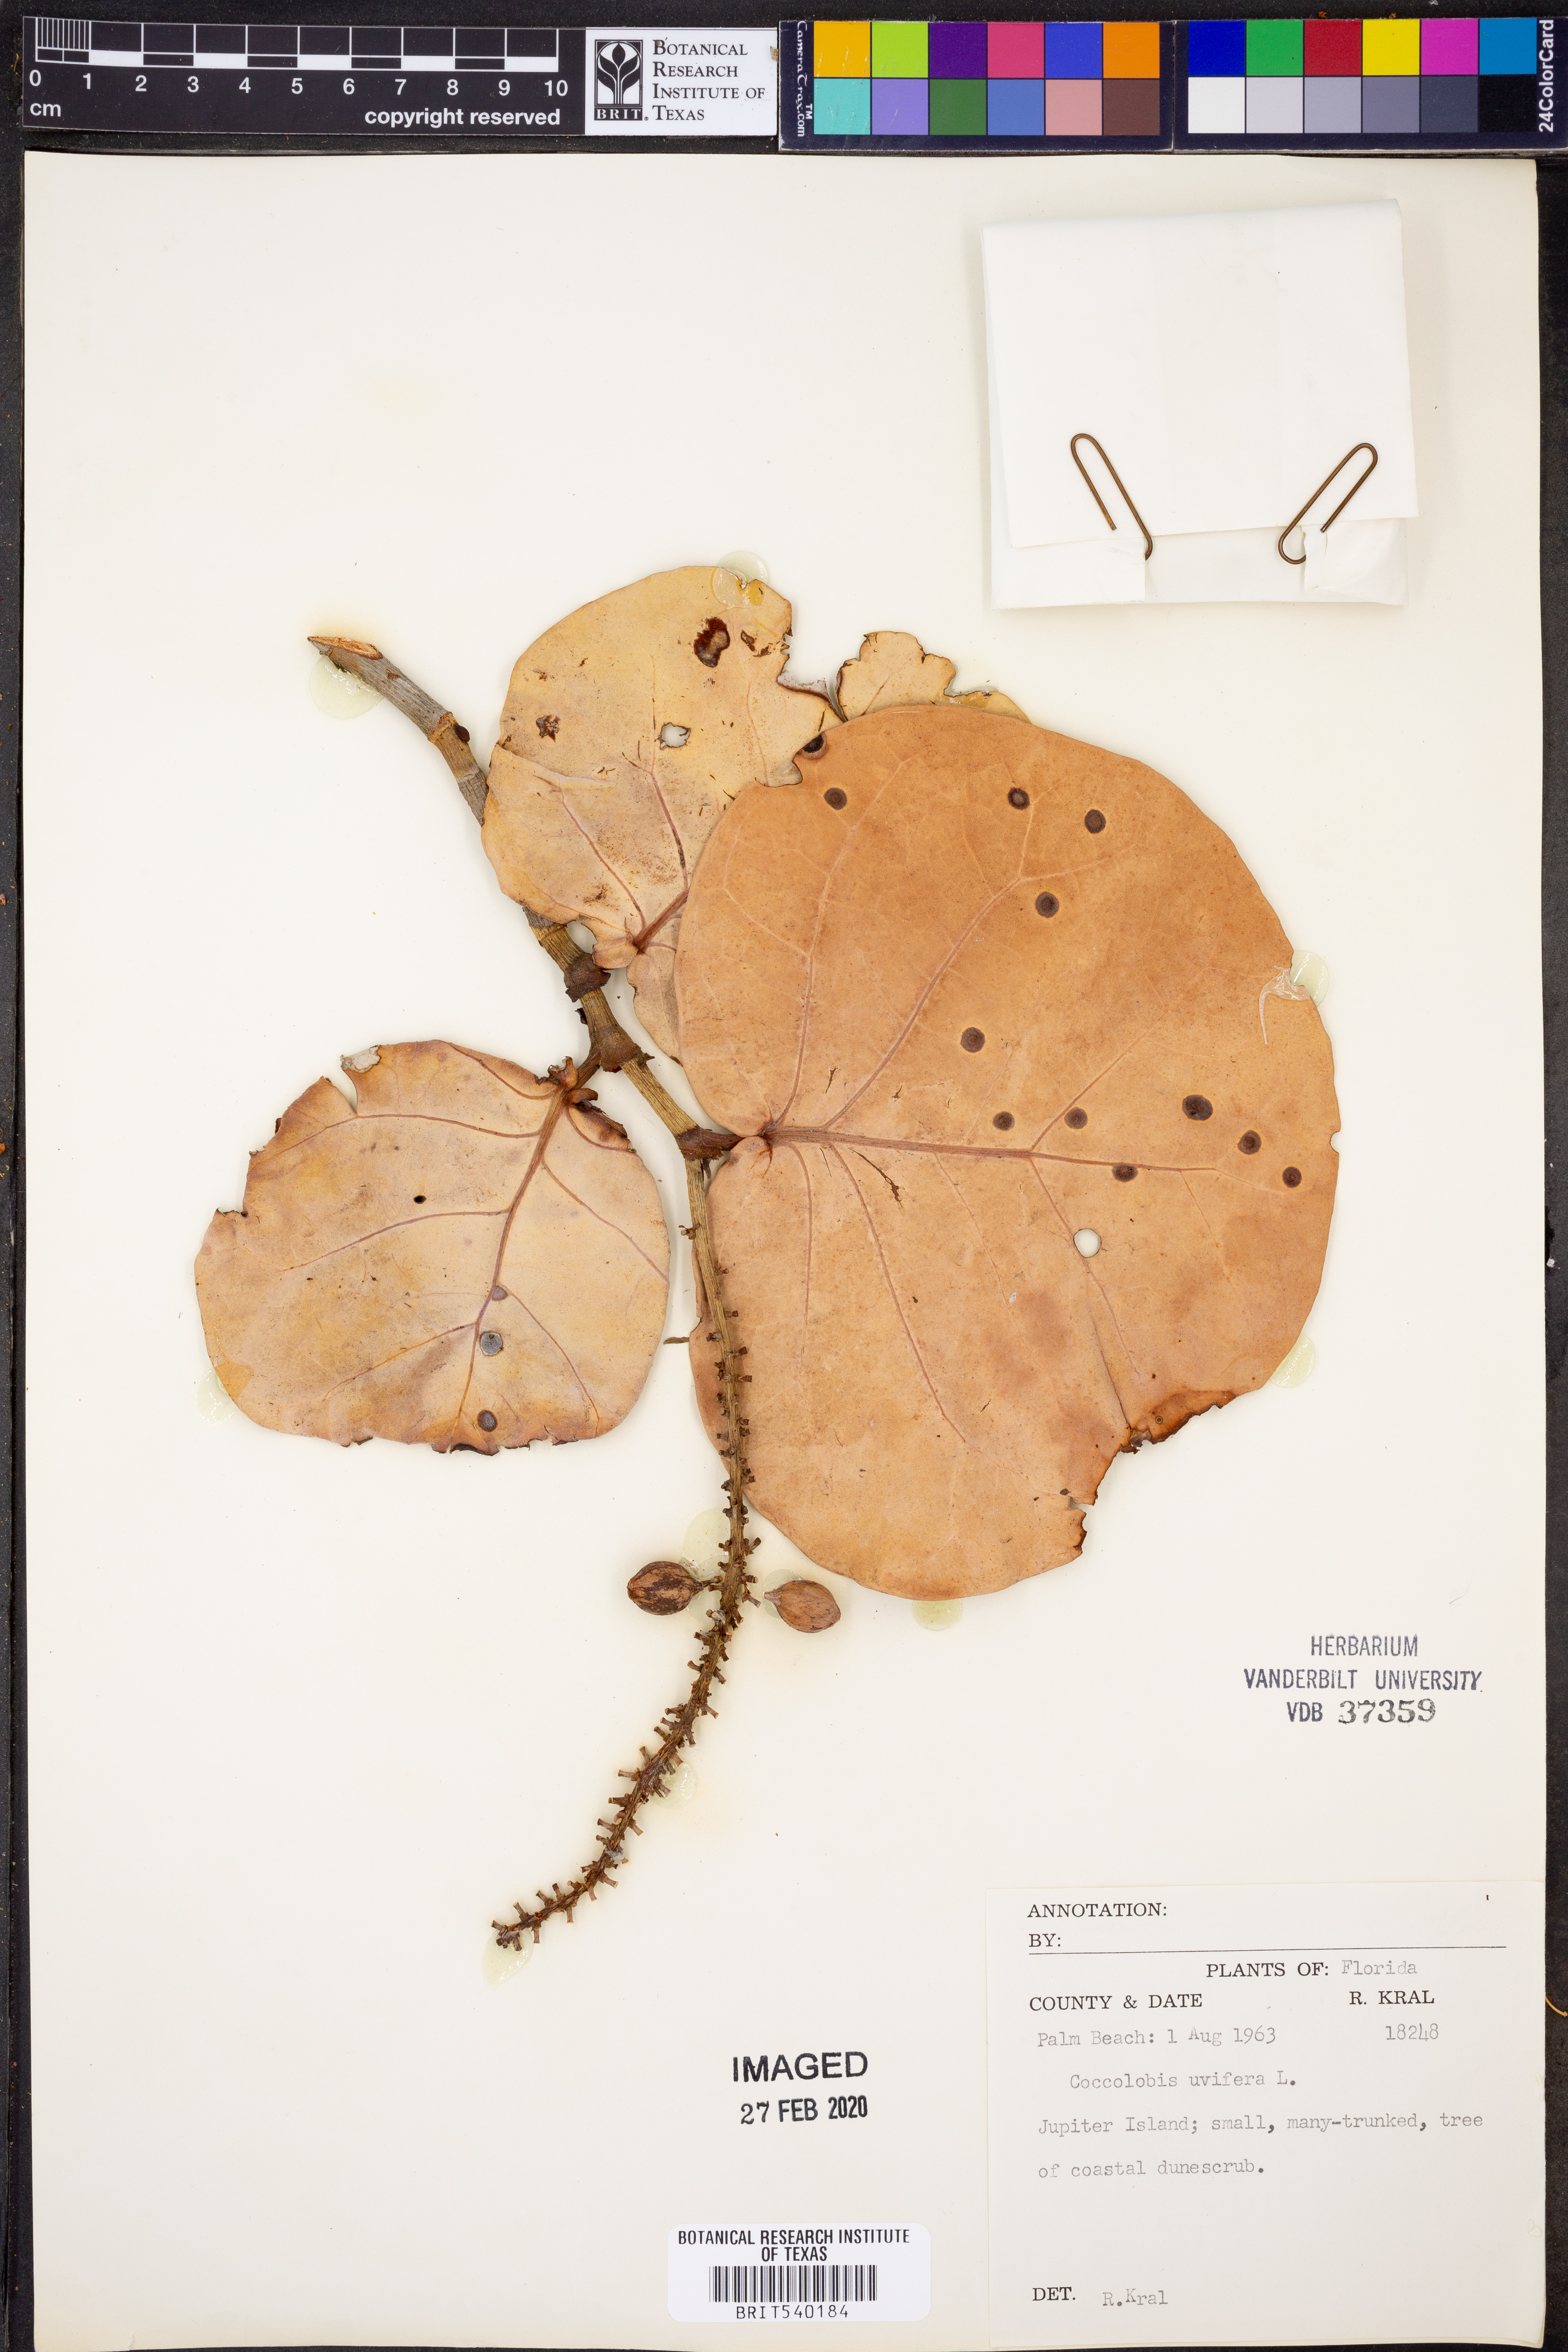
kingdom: Plantae
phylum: Tracheophyta
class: Magnoliopsida
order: Caryophyllales
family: Polygonaceae
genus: Coccoloba
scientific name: Coccoloba uvifera
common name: Seagrape
